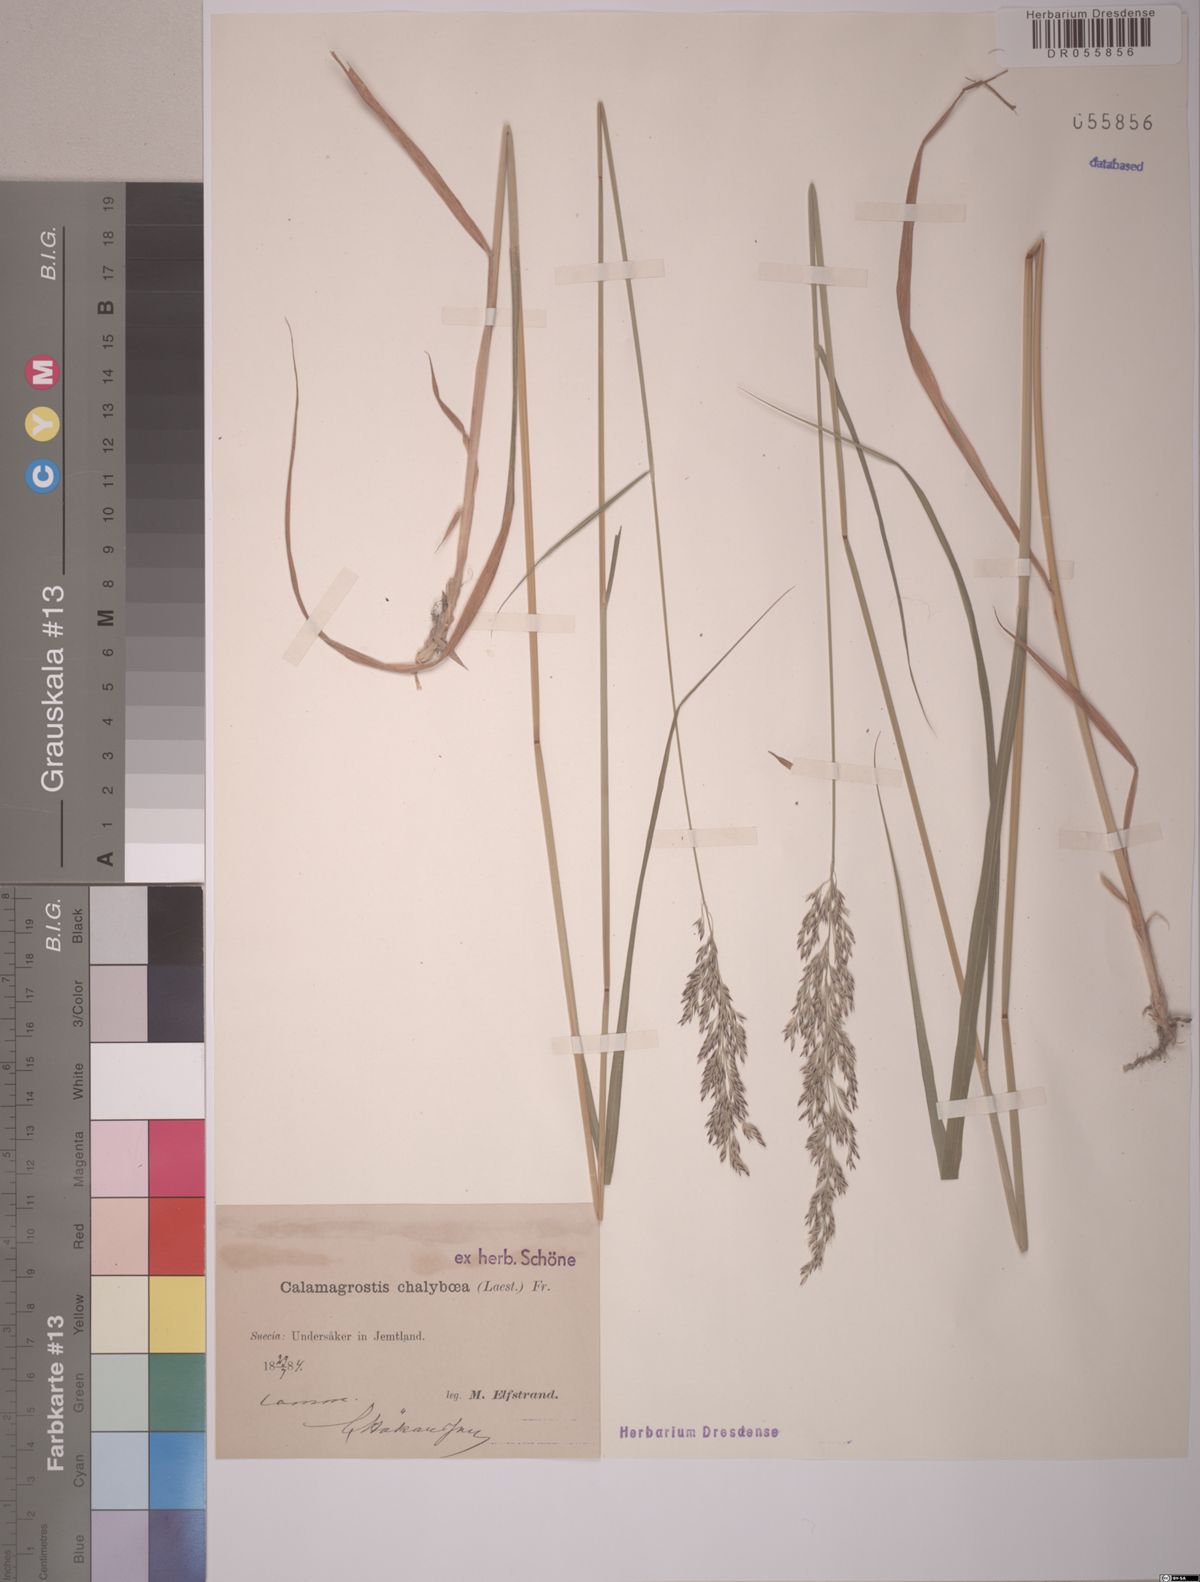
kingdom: Plantae
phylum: Tracheophyta
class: Liliopsida
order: Poales
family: Poaceae
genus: Calamagrostis
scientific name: Calamagrostis chalybaea
